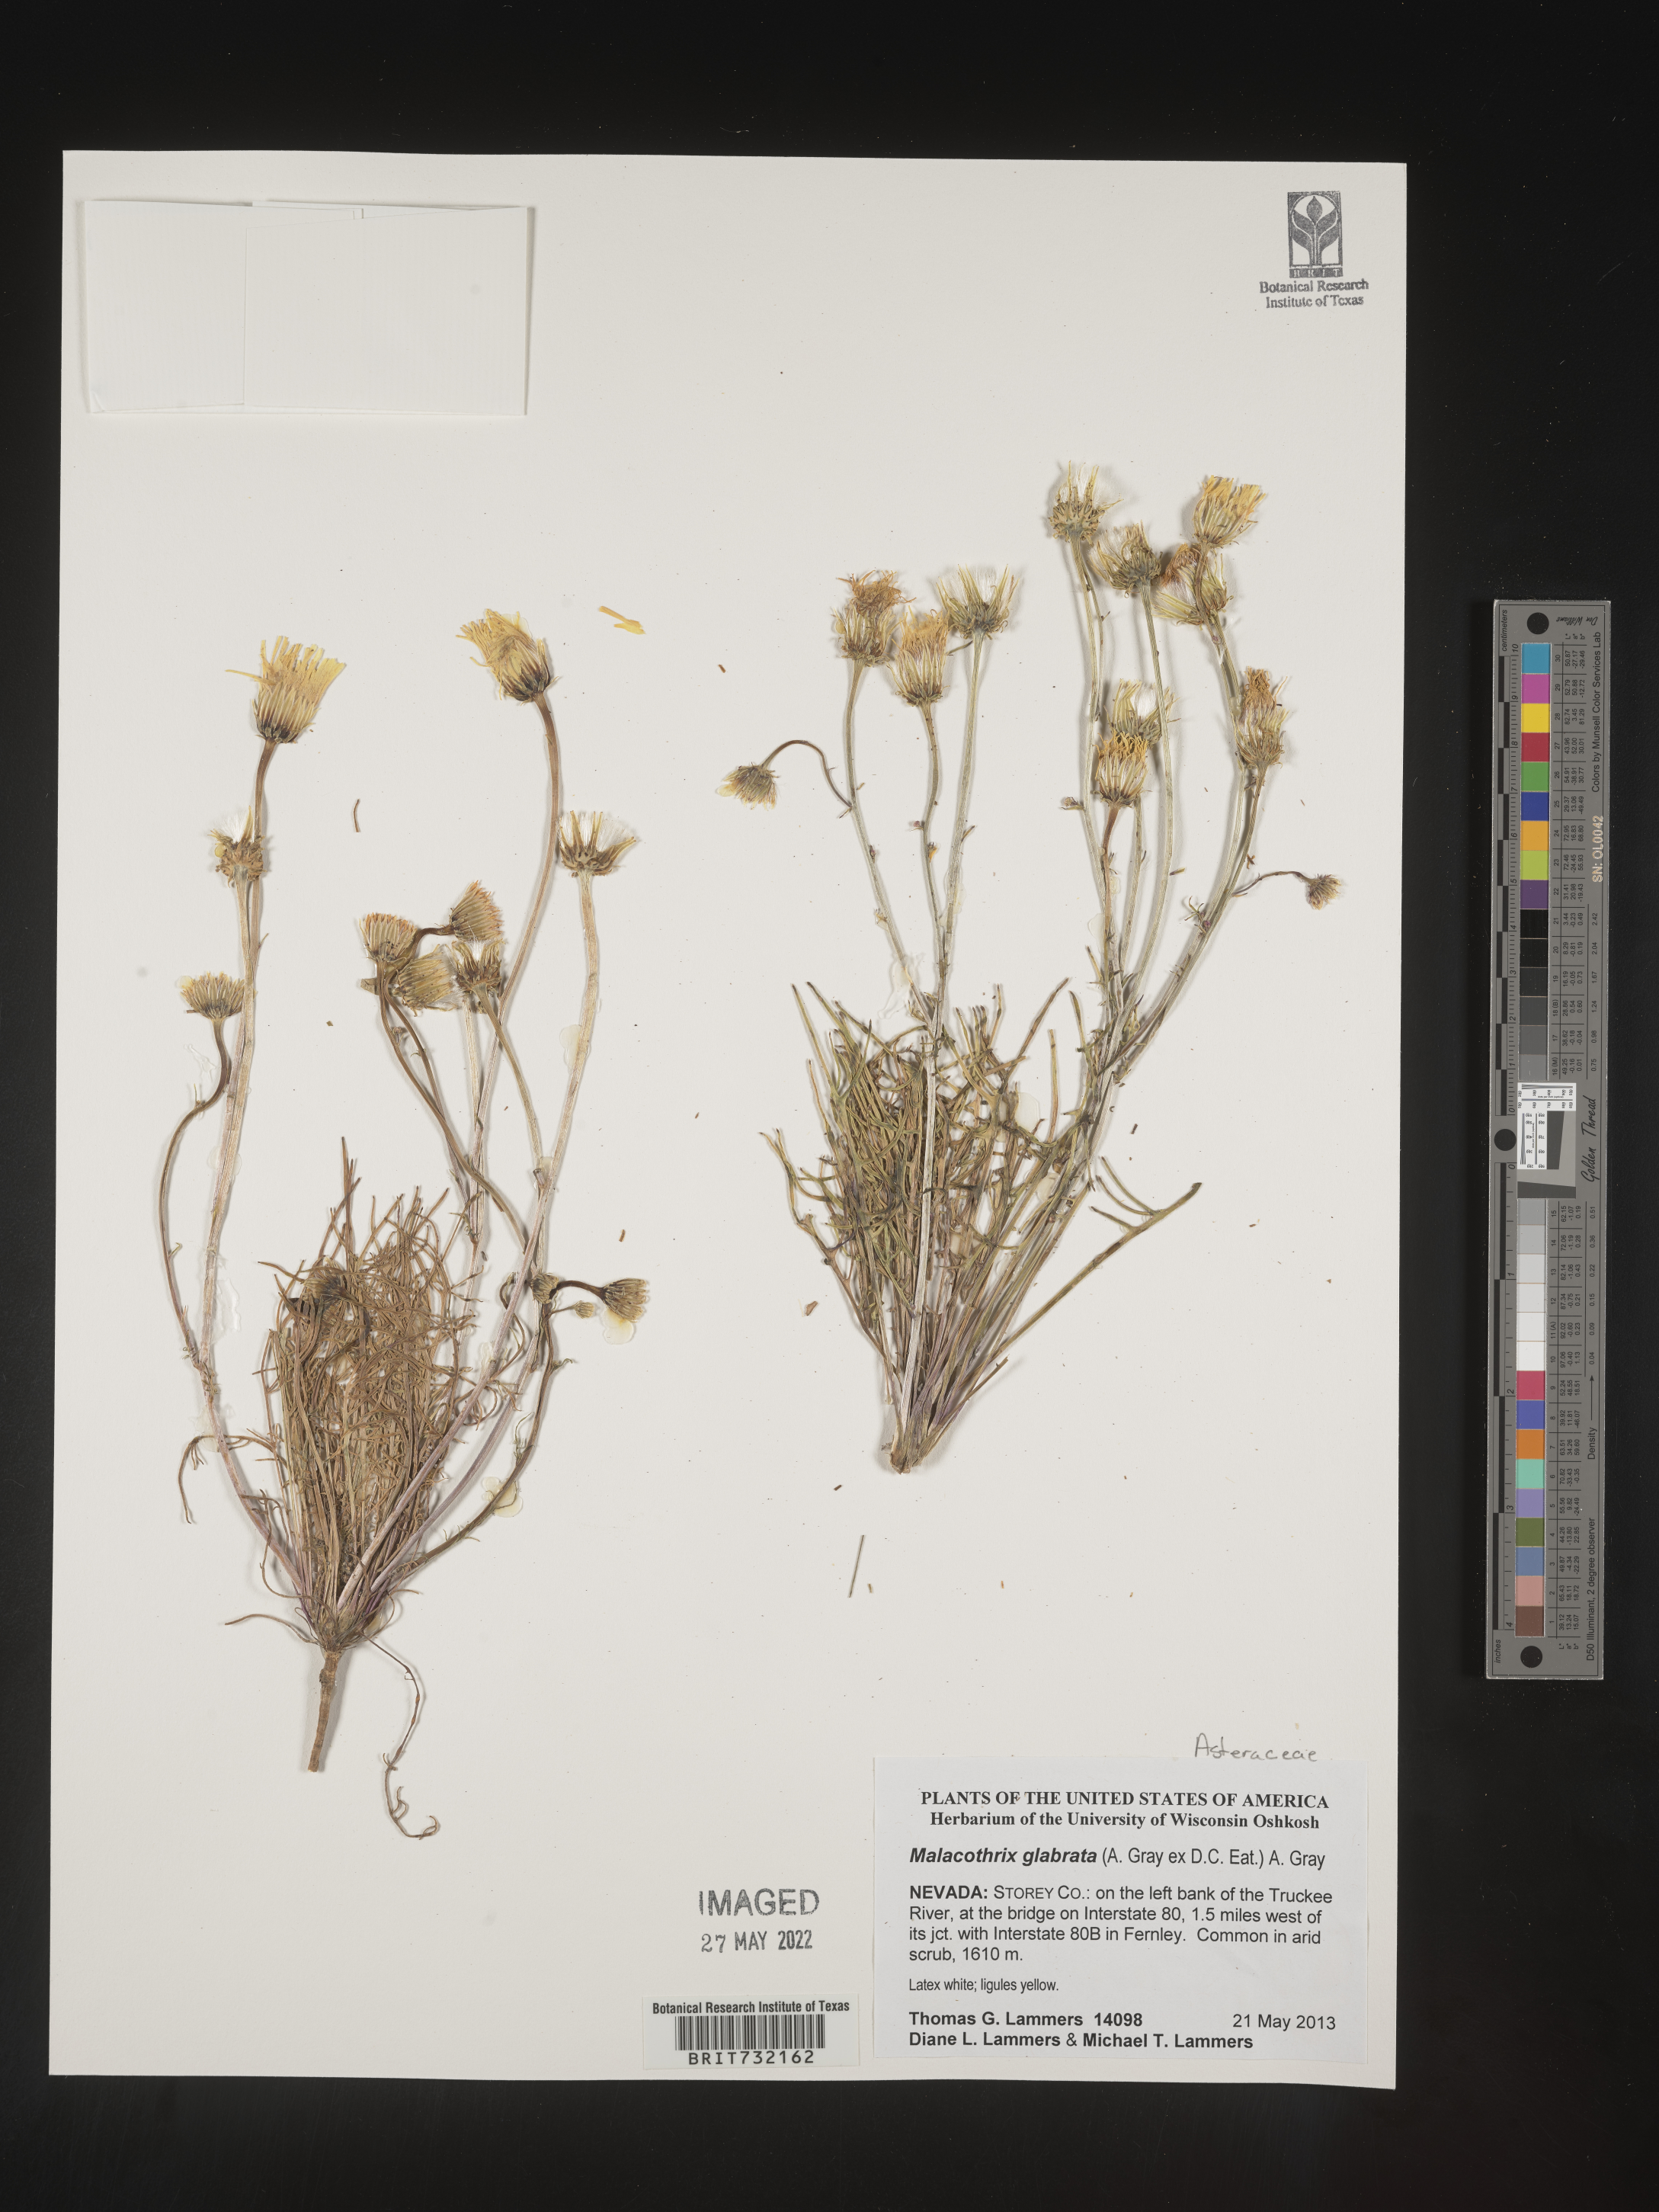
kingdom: Plantae
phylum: Tracheophyta
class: Magnoliopsida
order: Asterales
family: Asteraceae
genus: Malacothrix
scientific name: Malacothrix glabrata
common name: Smooth desert-dandelion
